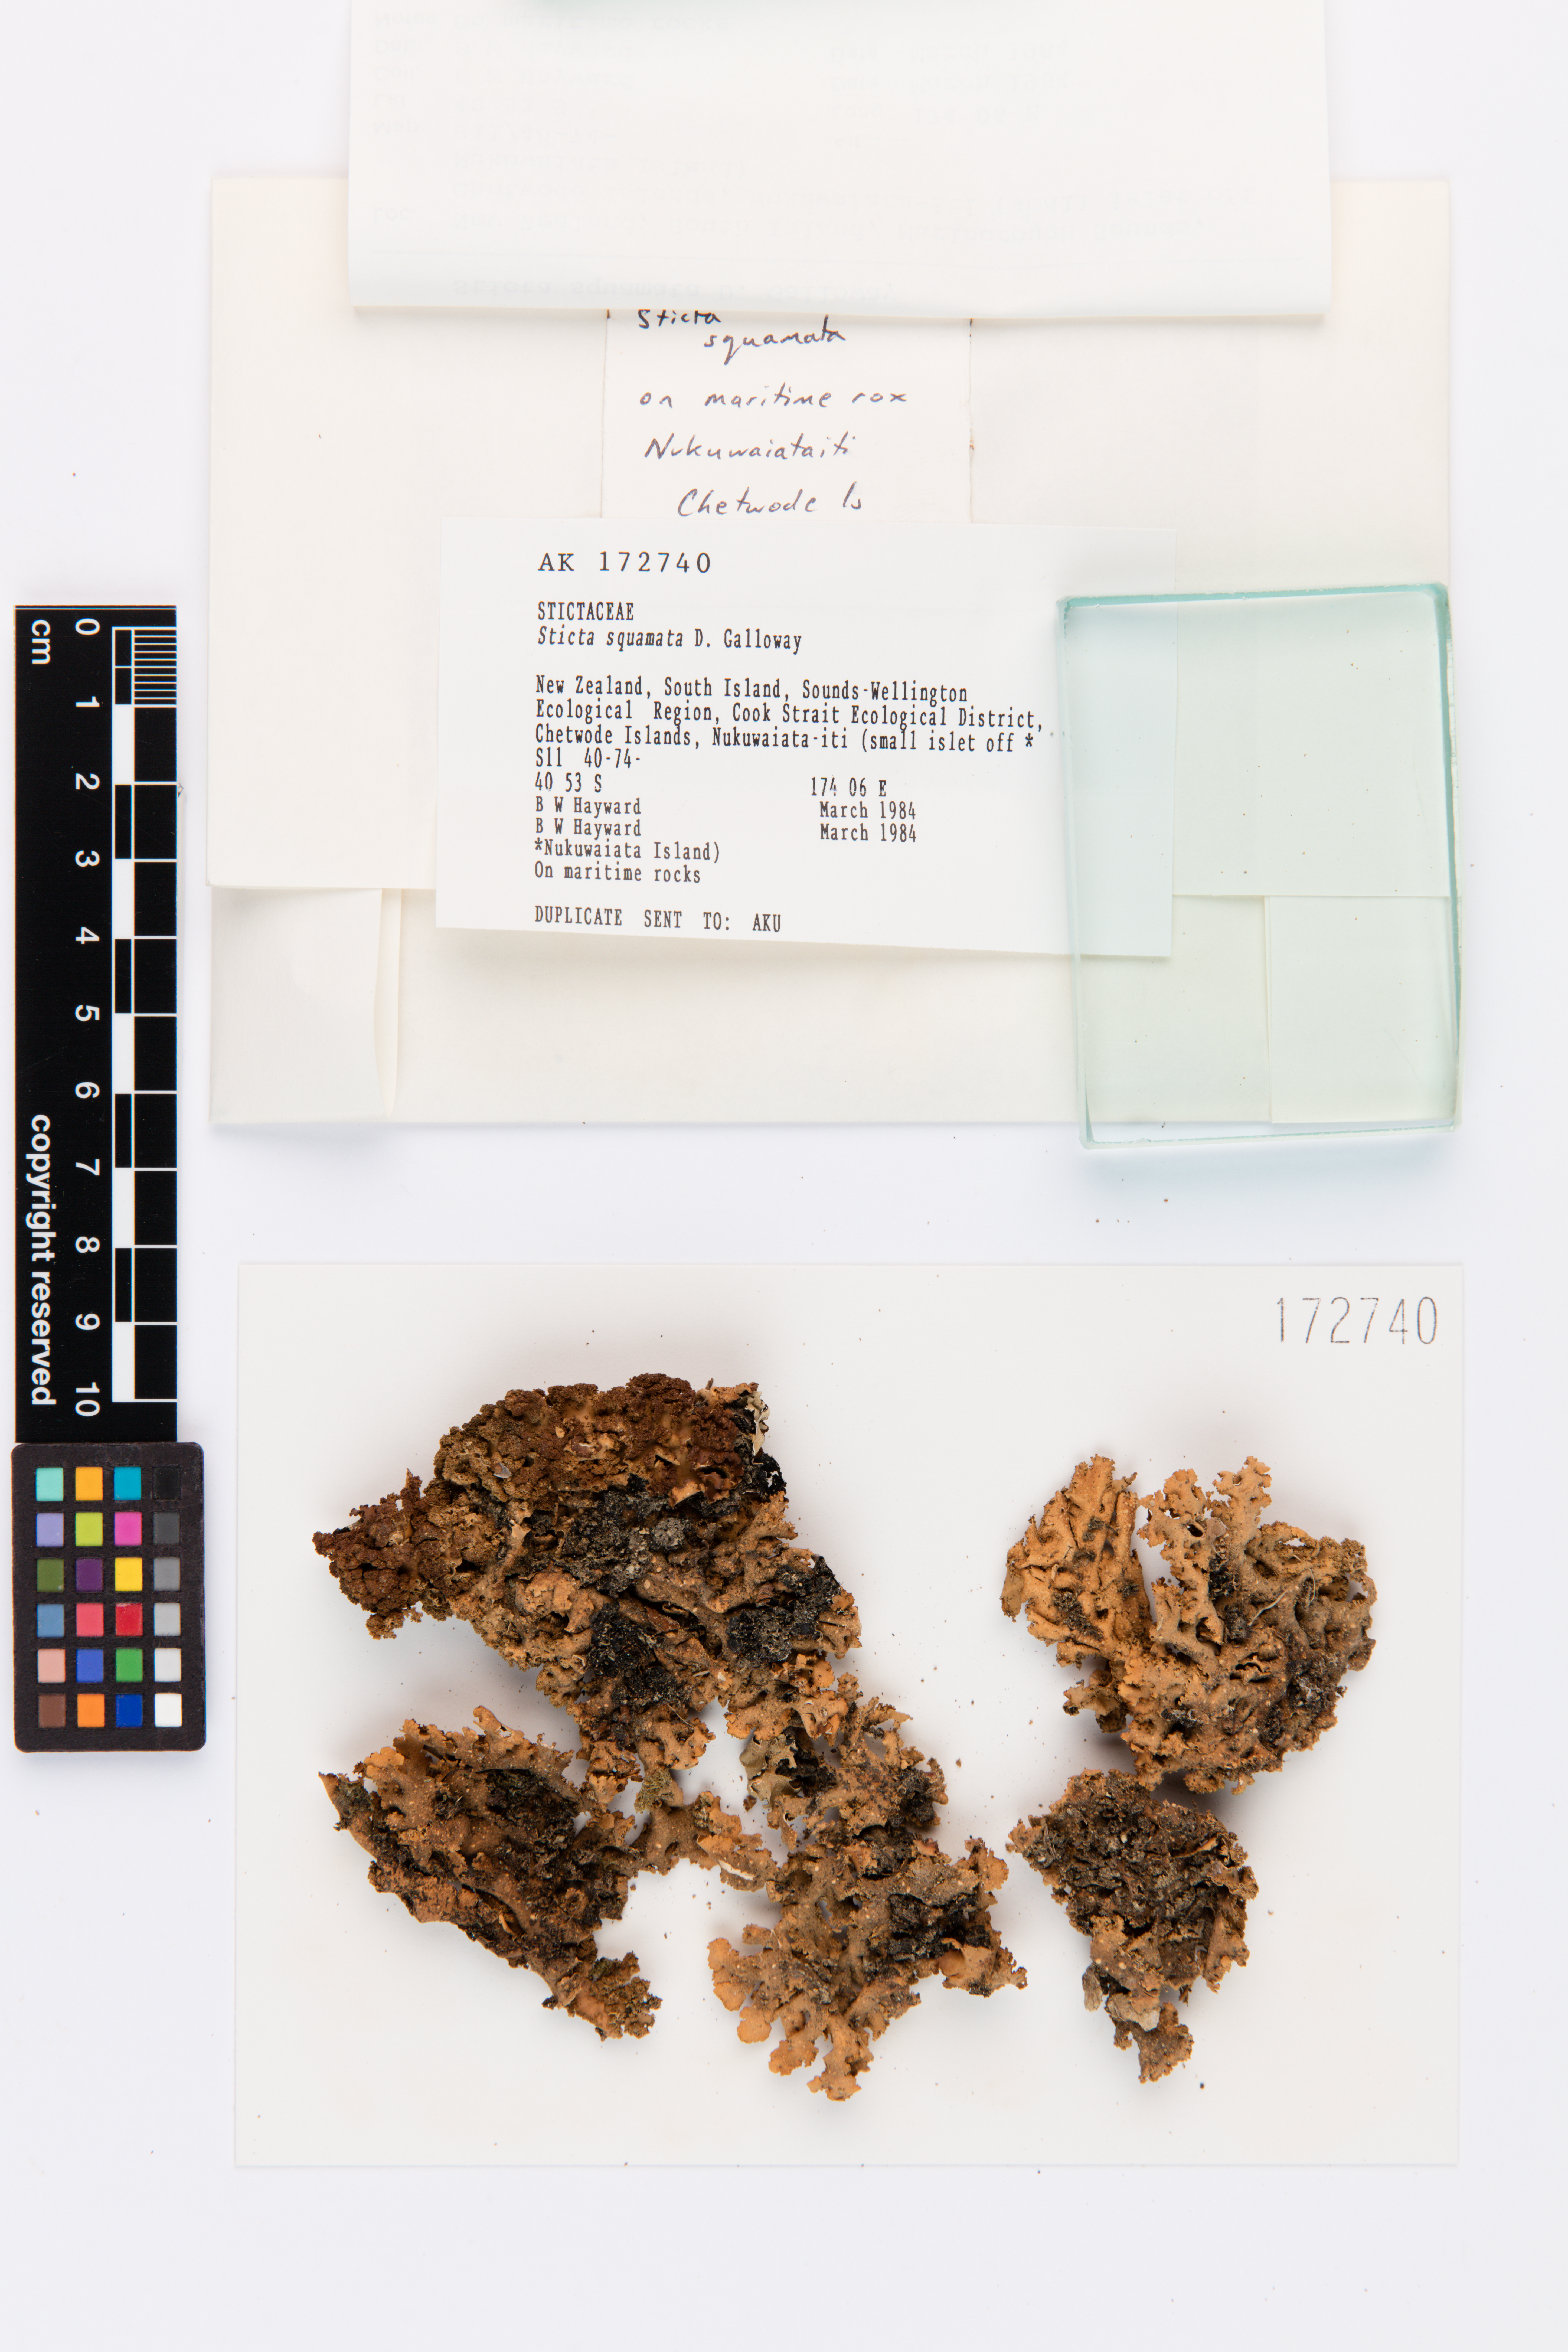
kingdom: Fungi
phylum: Ascomycota
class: Lecanoromycetes
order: Peltigerales
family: Lobariaceae
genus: Sticta
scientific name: Sticta squamata
